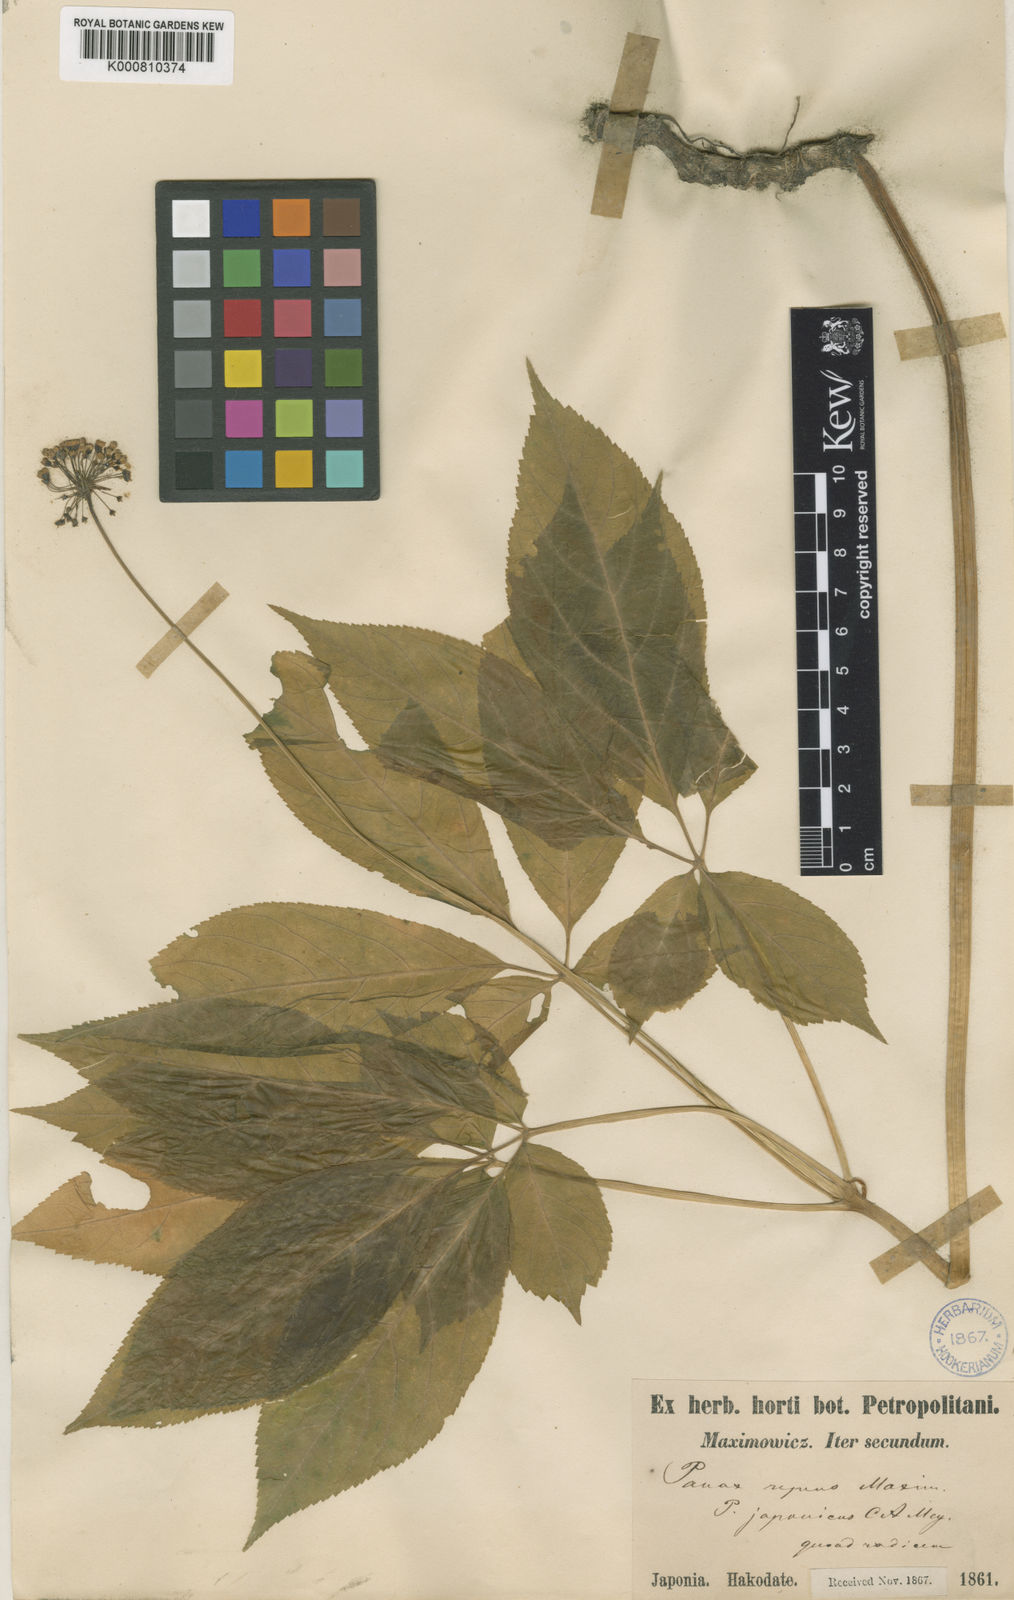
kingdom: Plantae
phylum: Tracheophyta
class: Magnoliopsida
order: Apiales
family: Araliaceae
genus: Panax
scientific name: Panax japonicus
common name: Japanese ginseng
